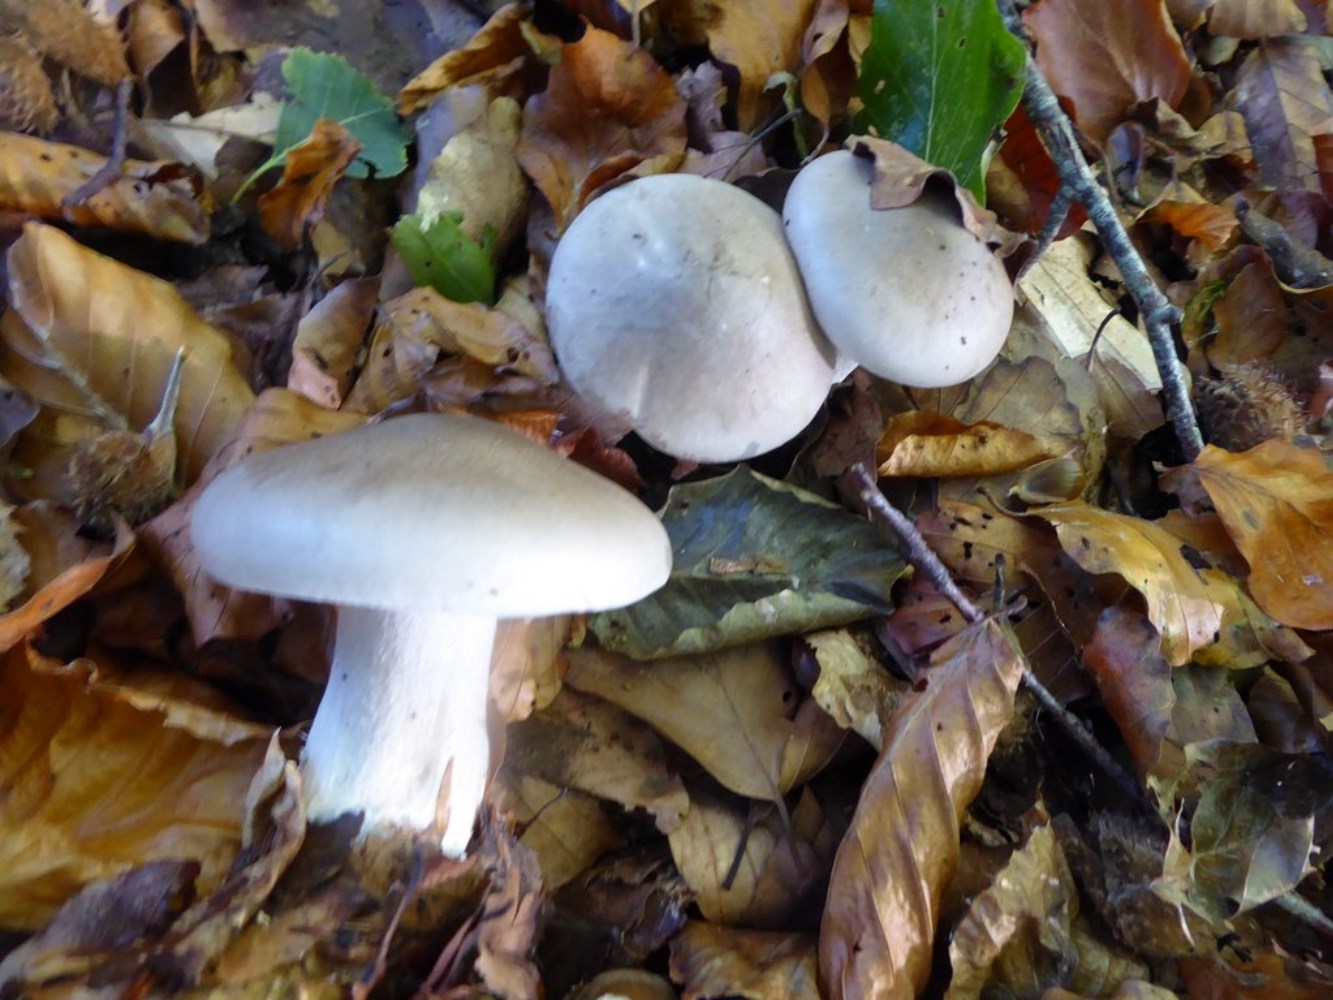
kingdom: Fungi
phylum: Basidiomycota
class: Agaricomycetes
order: Agaricales
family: Tricholomataceae
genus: Clitocybe
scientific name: Clitocybe nebularis
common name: tåge-tragthat
